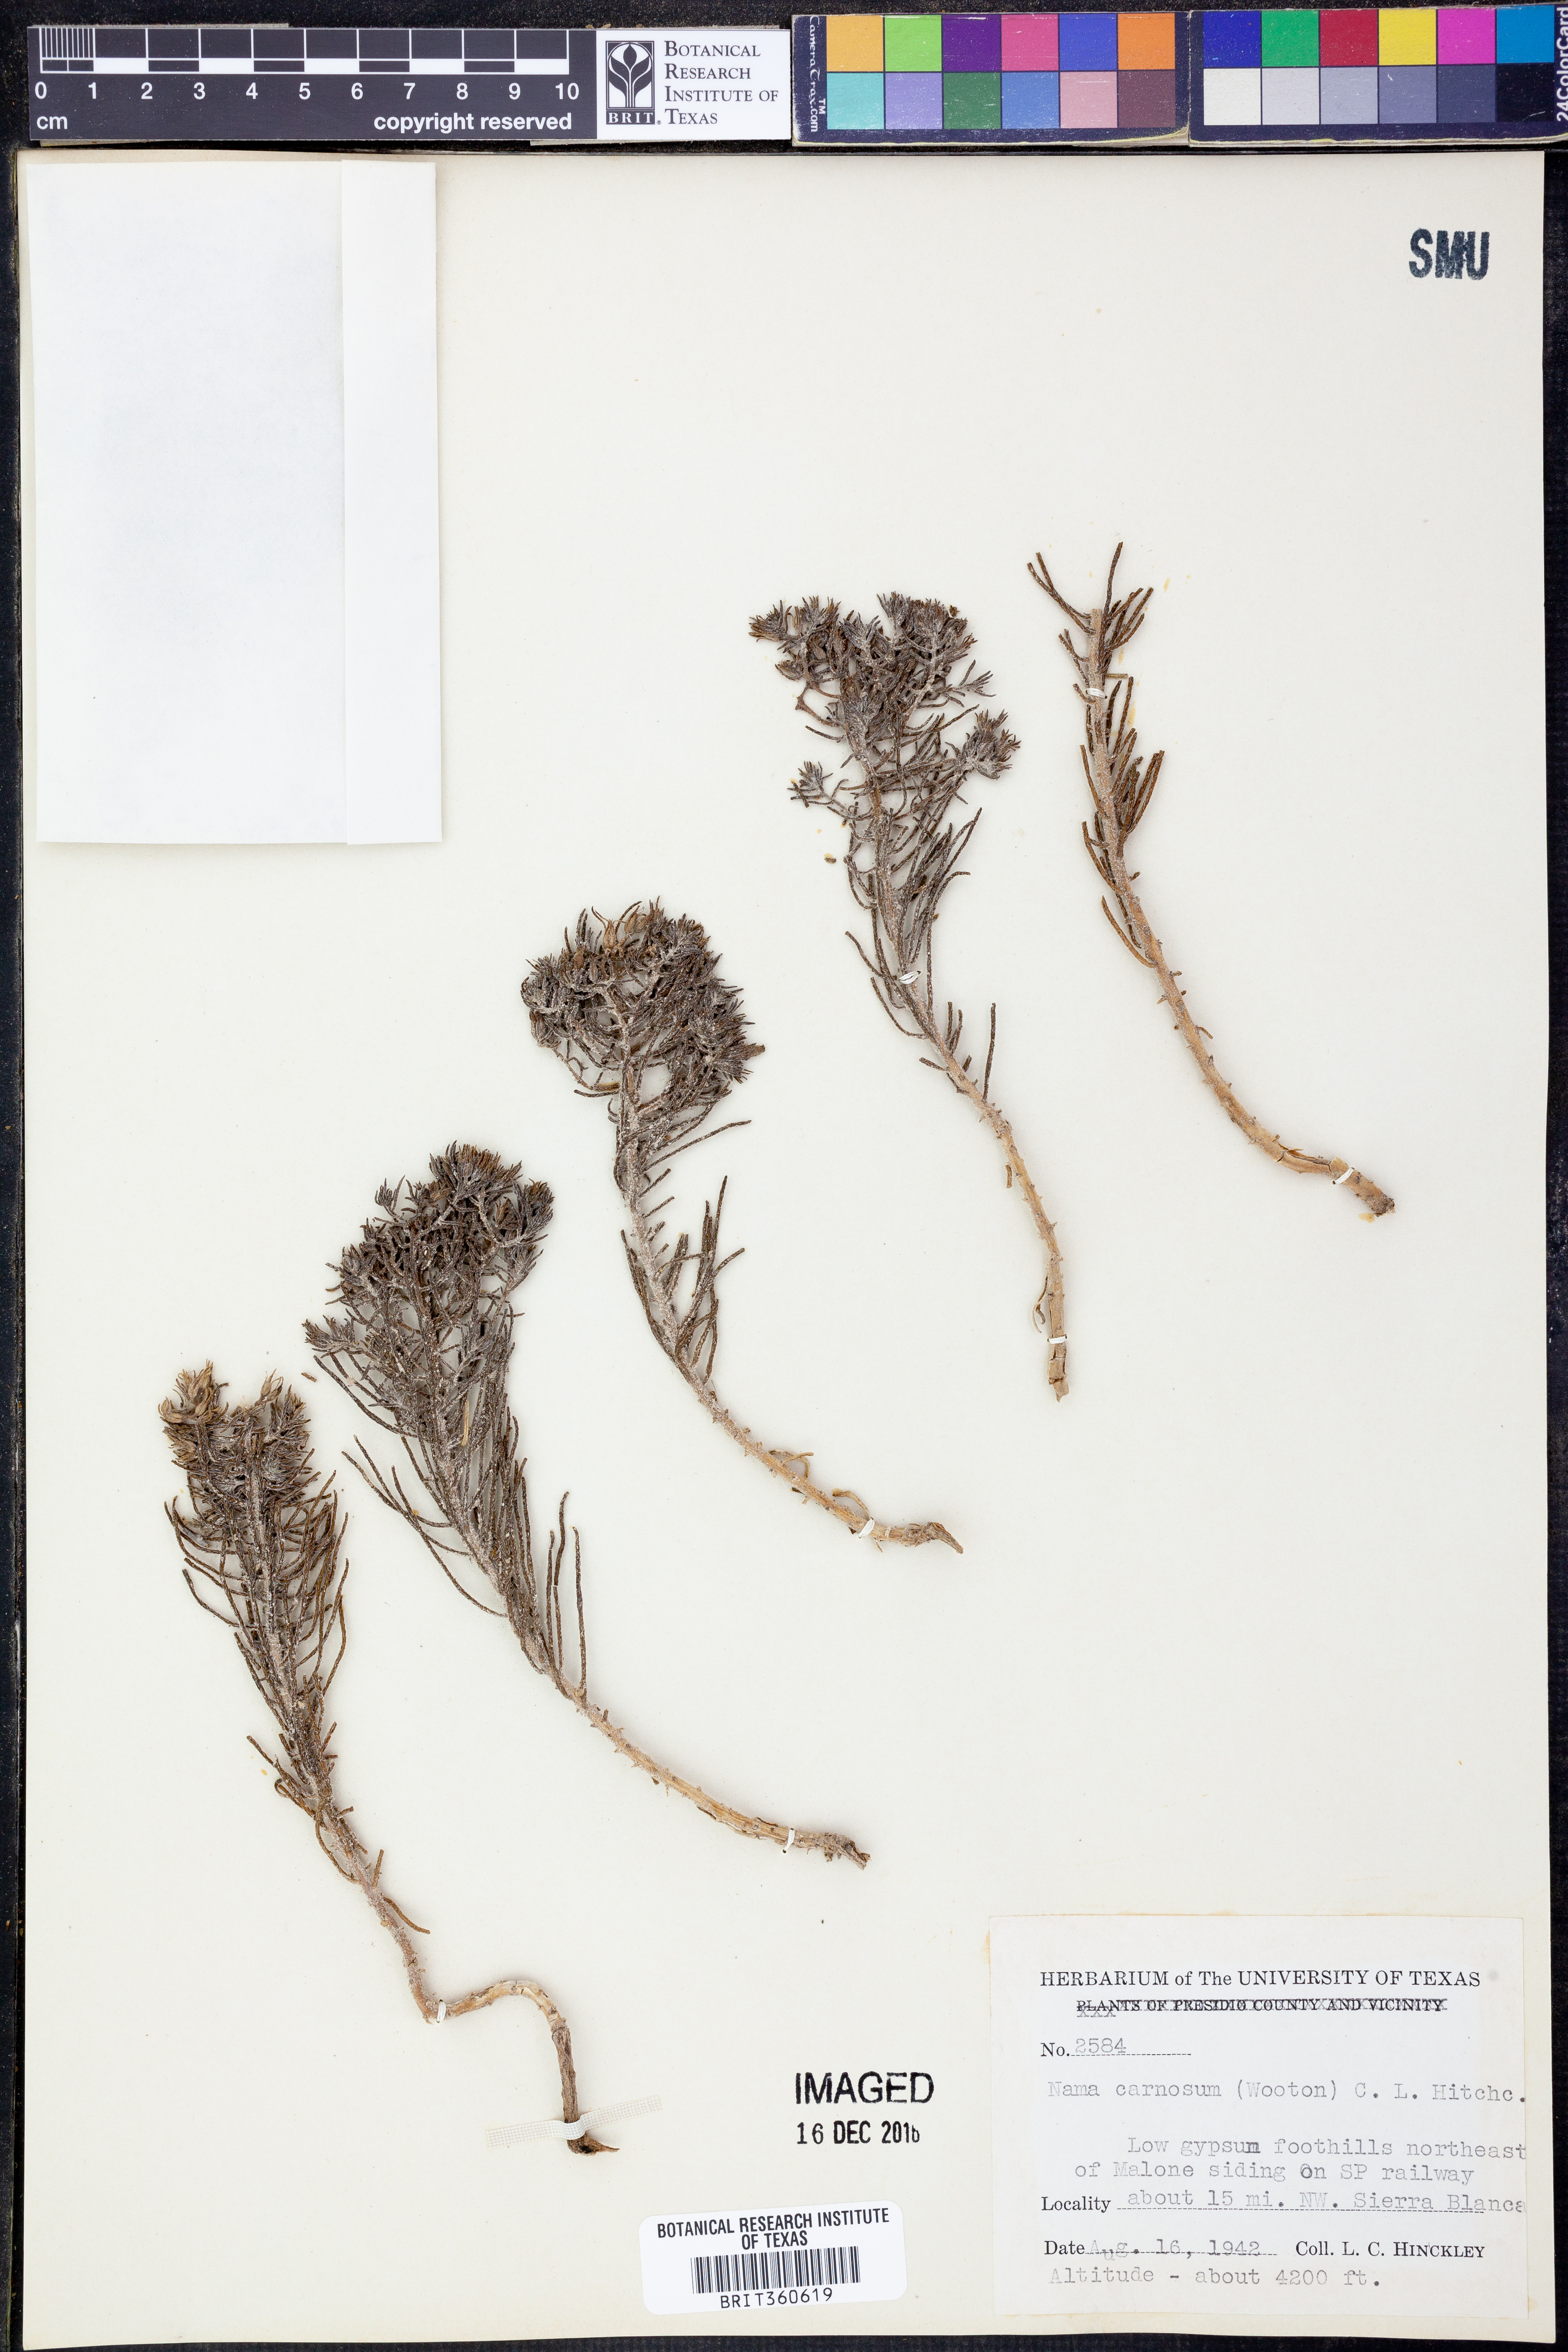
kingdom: Plantae
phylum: Tracheophyta
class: Magnoliopsida
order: Boraginales
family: Namaceae
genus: Andropus
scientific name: Andropus carnosus
